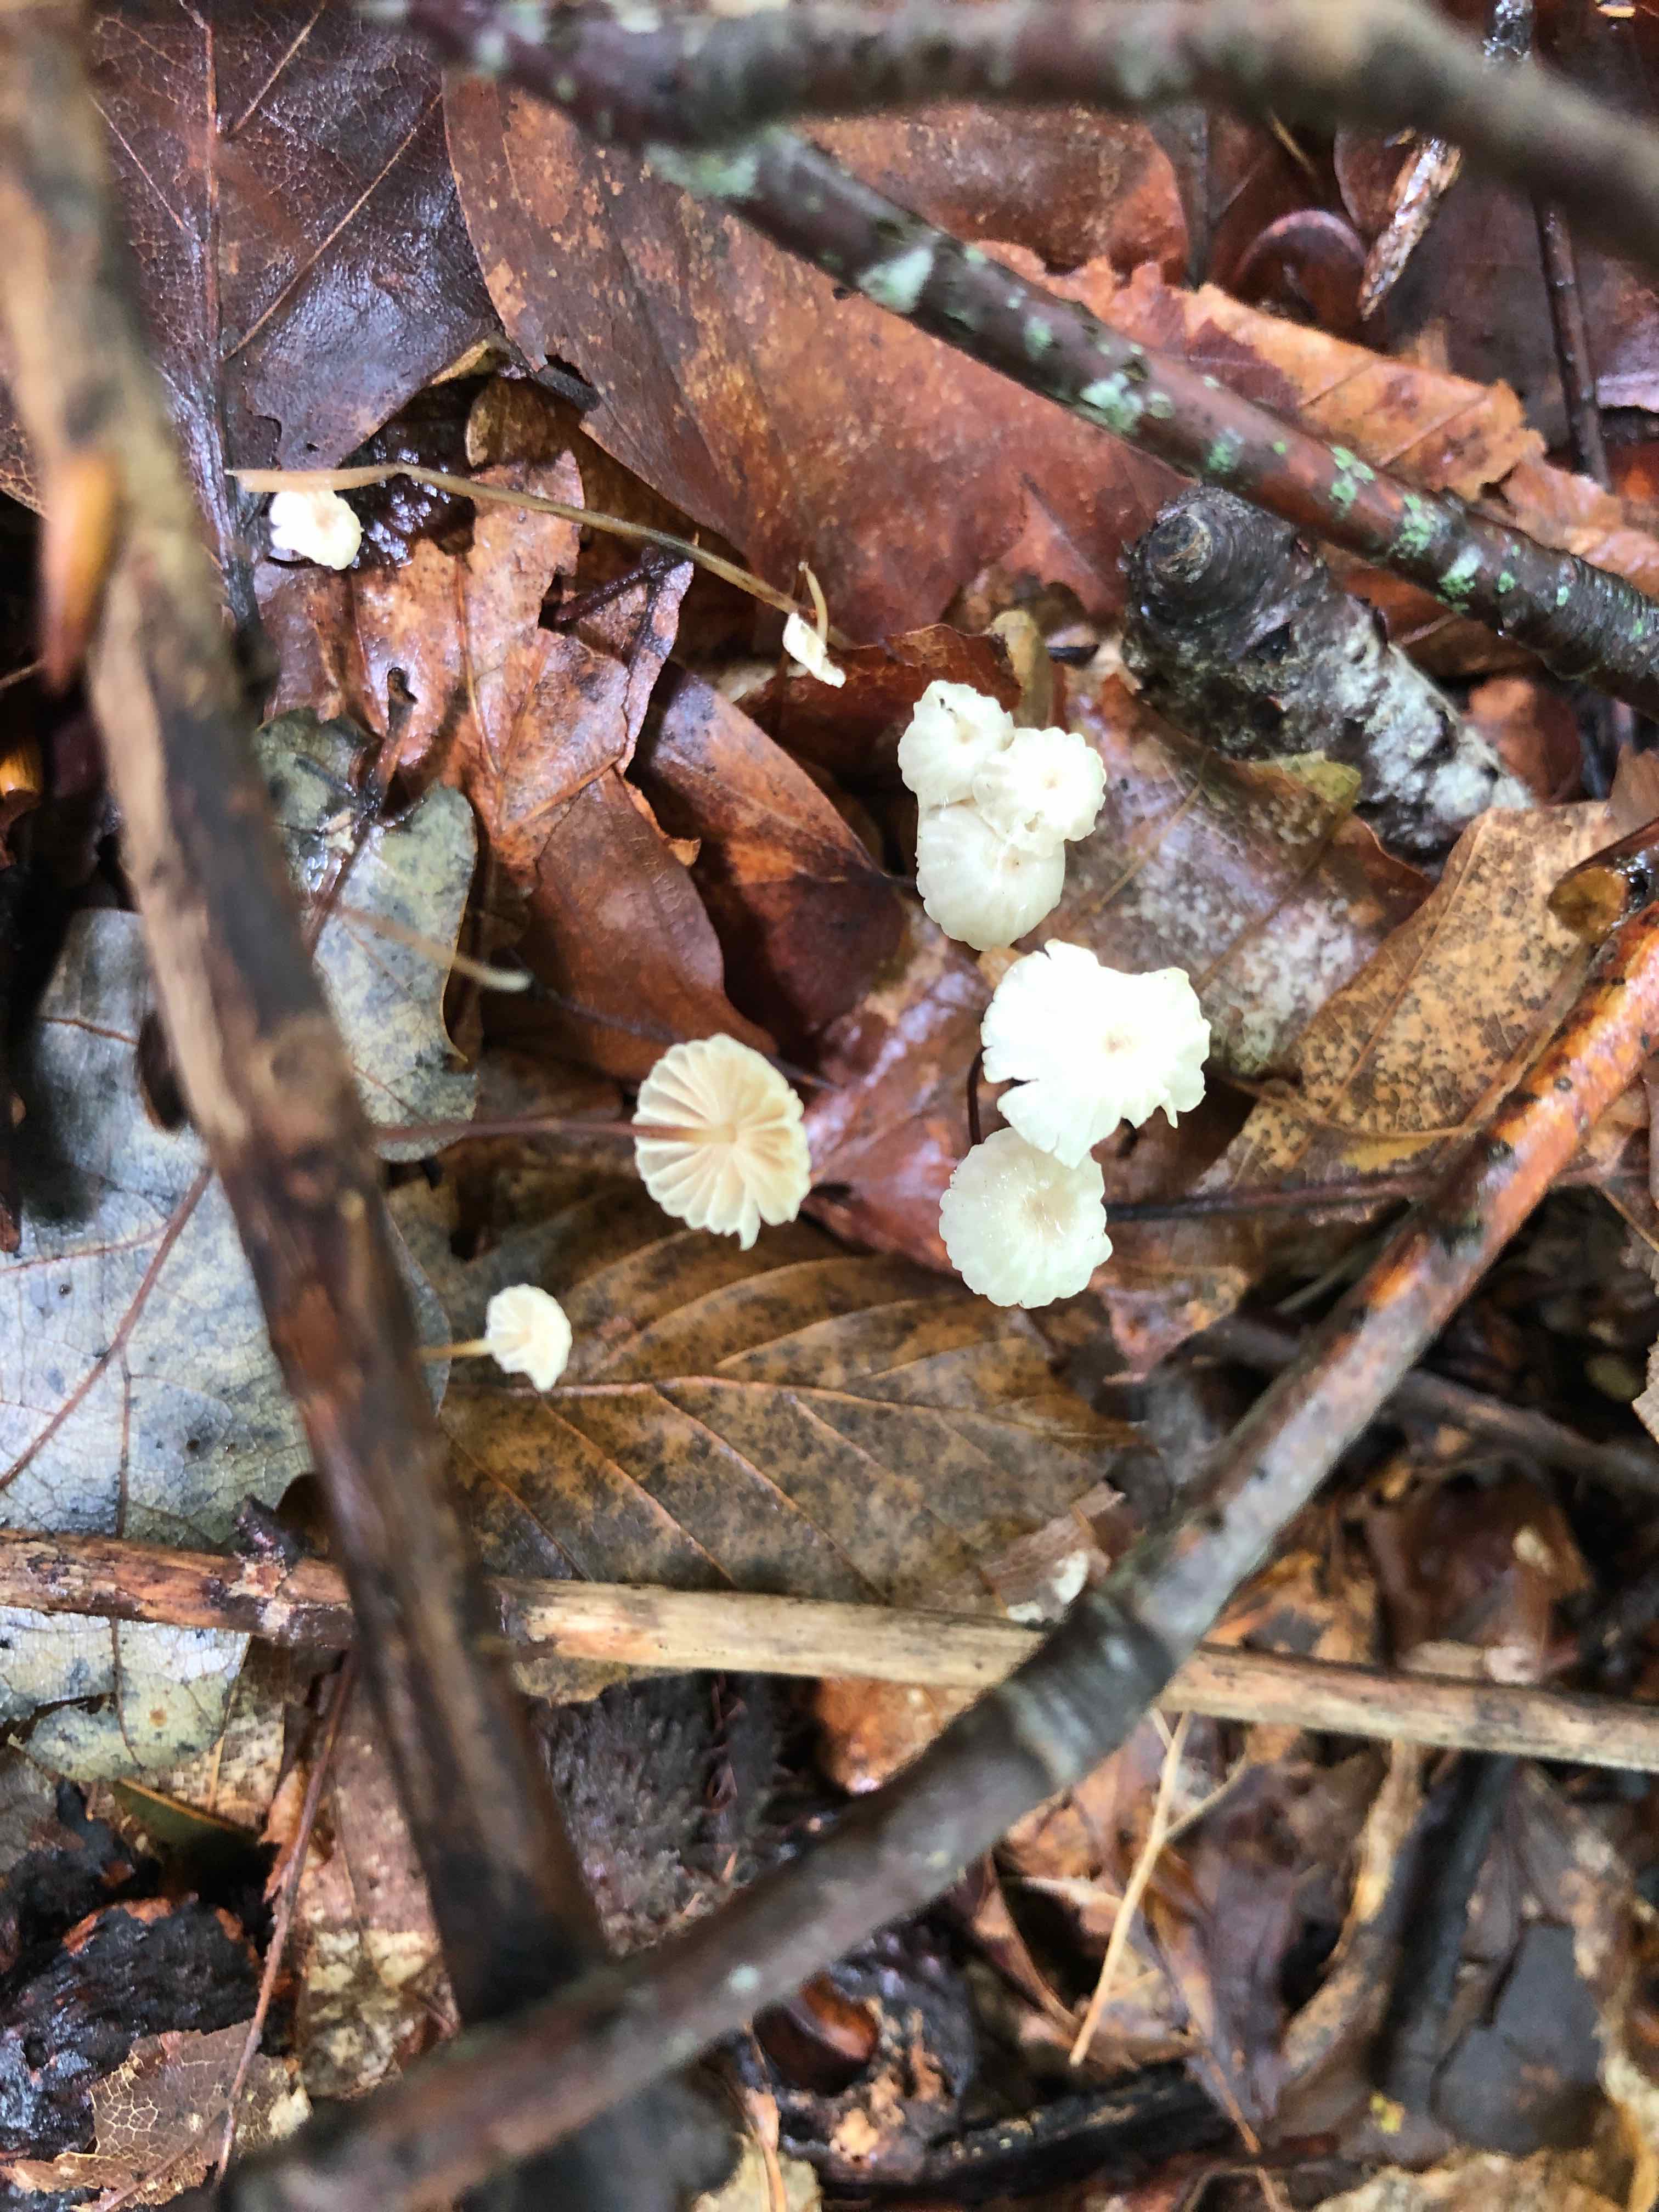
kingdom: Fungi
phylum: Basidiomycota
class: Agaricomycetes
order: Agaricales
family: Marasmiaceae
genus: Marasmius
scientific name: Marasmius rotula
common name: hjul-bruskhat
